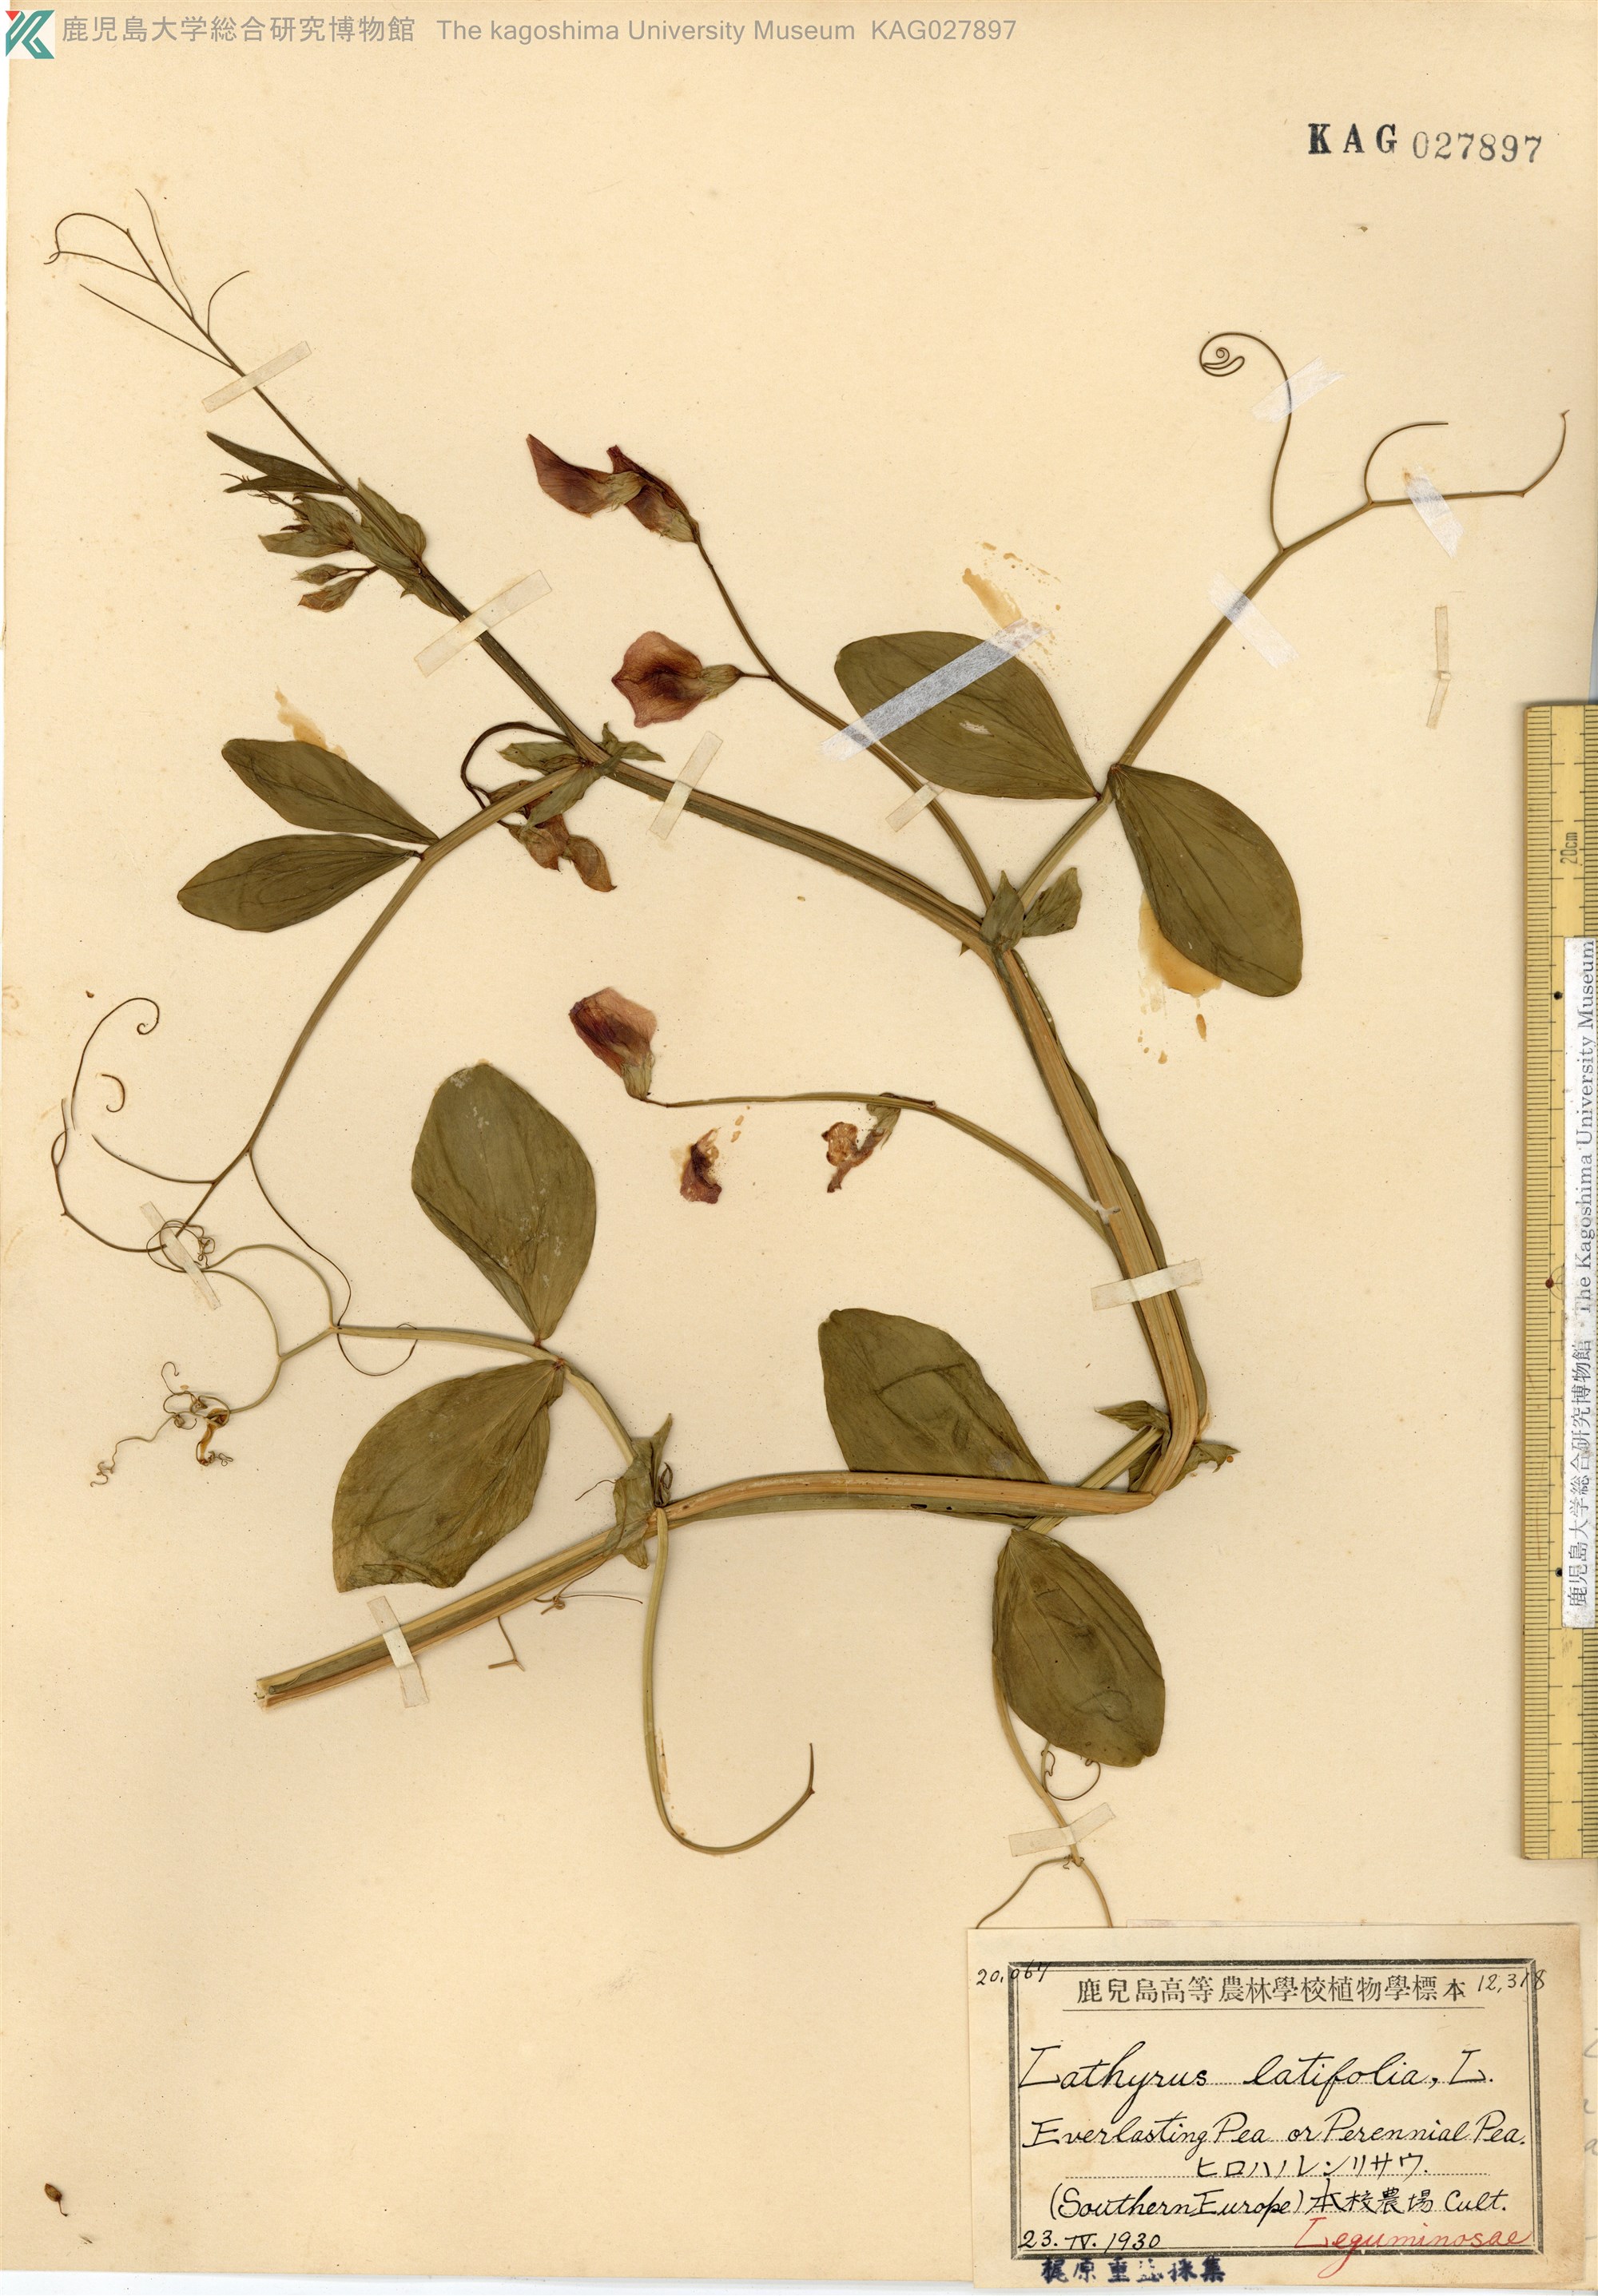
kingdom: Plantae
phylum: Tracheophyta
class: Magnoliopsida
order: Fabales
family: Fabaceae
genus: Lathyrus
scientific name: Lathyrus latifolius
